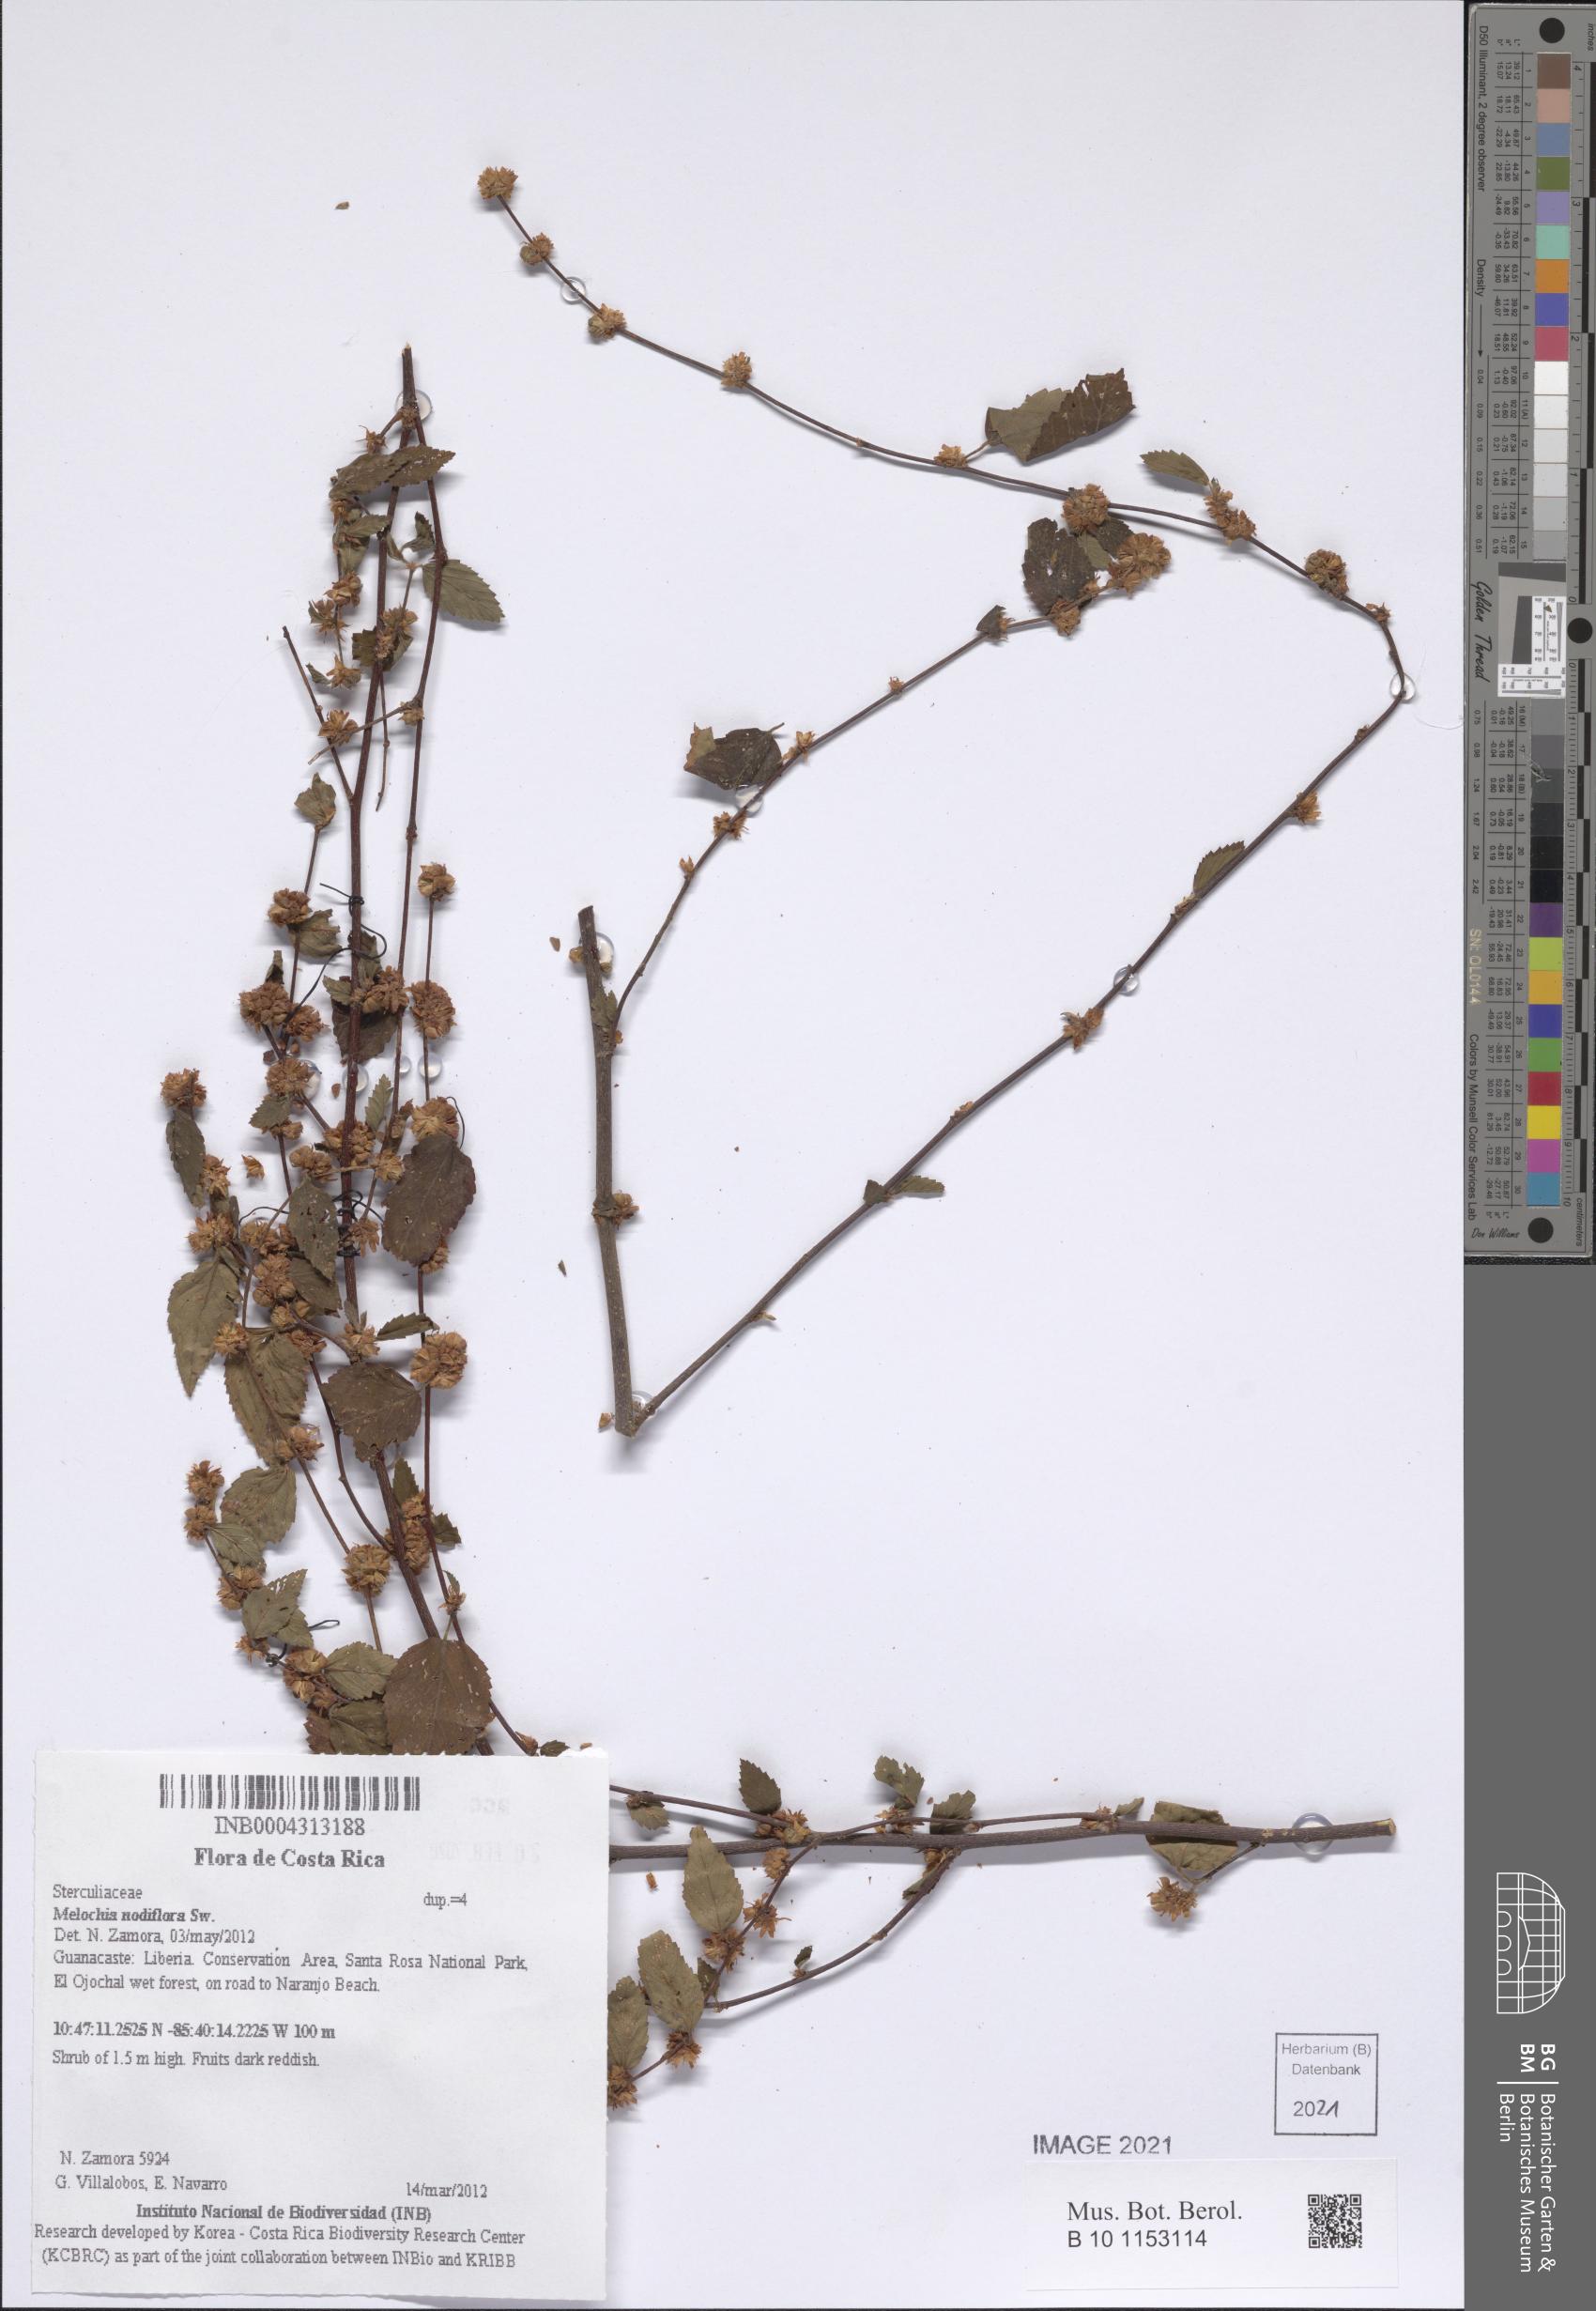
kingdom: Plantae
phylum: Tracheophyta
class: Magnoliopsida
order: Malvales
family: Malvaceae
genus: Melochia
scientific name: Melochia nodiflora
